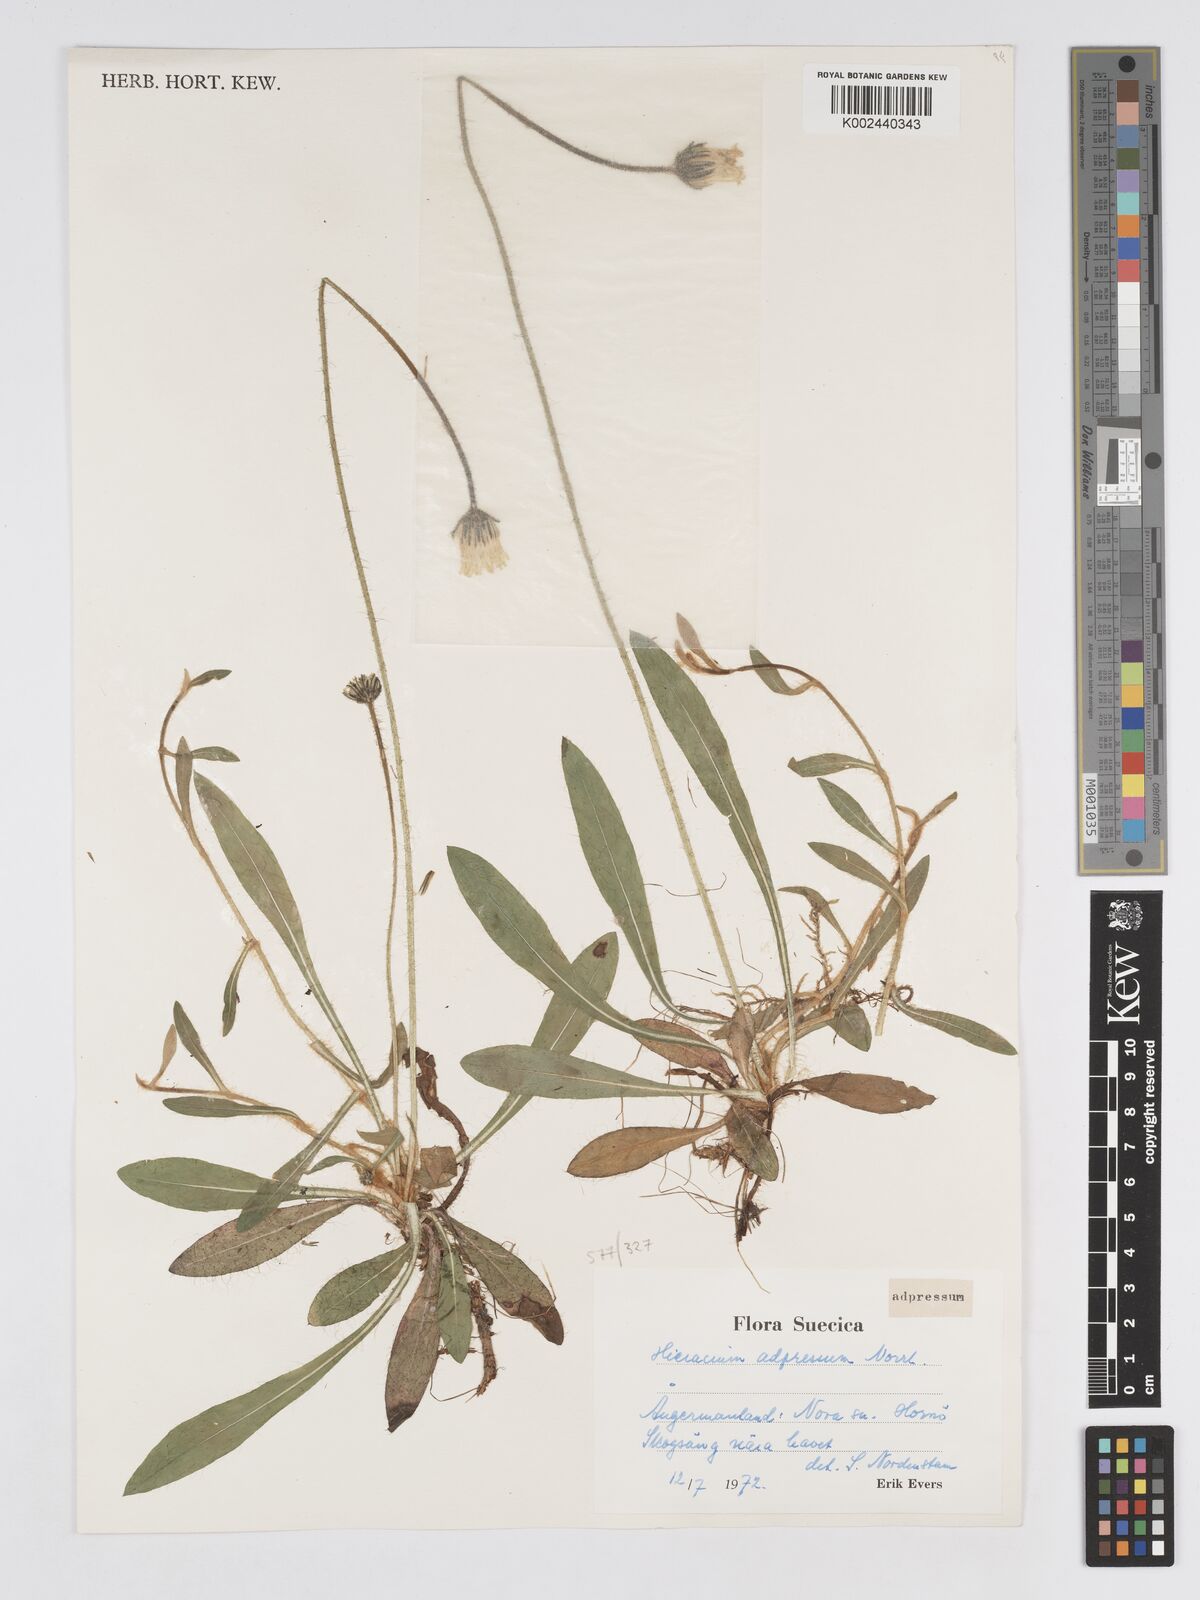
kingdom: Plantae
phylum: Tracheophyta
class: Magnoliopsida
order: Asterales
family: Asteraceae
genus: Pilosella
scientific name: Pilosella officinarum
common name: Mouse-ear hawkweed
